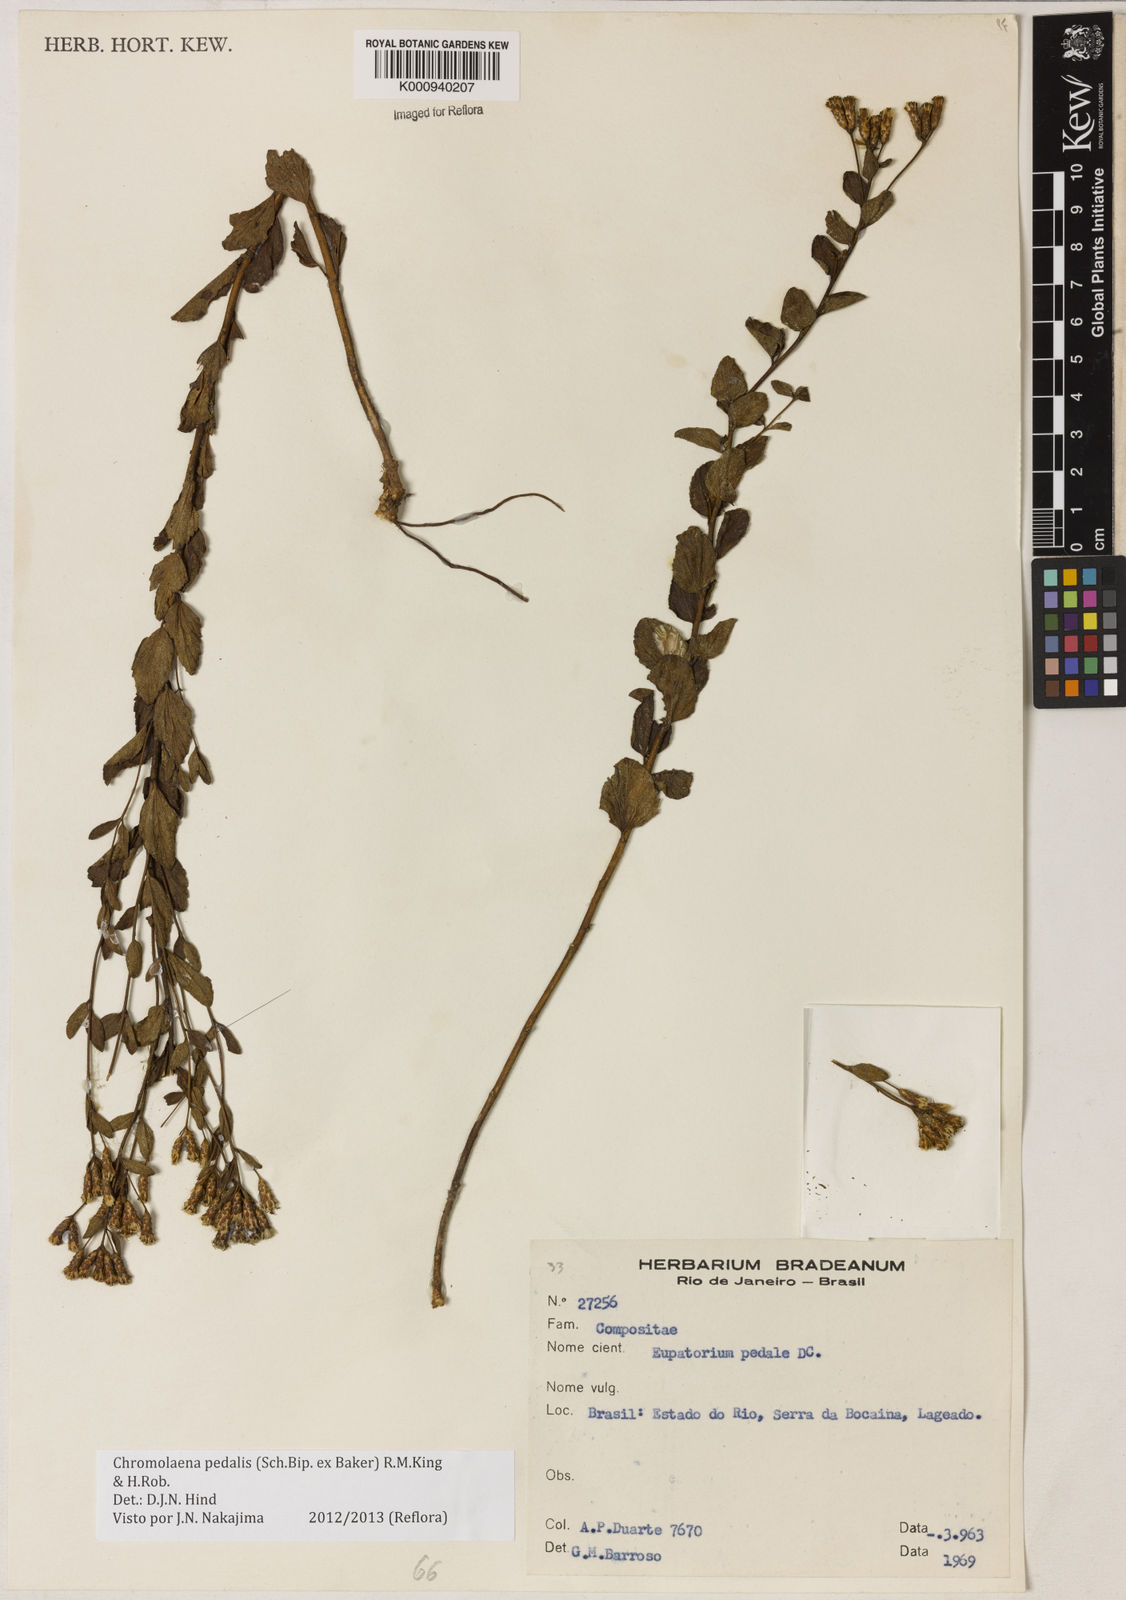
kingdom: Plantae
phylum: Tracheophyta
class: Magnoliopsida
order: Asterales
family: Asteraceae
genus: Chromolaena
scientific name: Chromolaena pedalis
